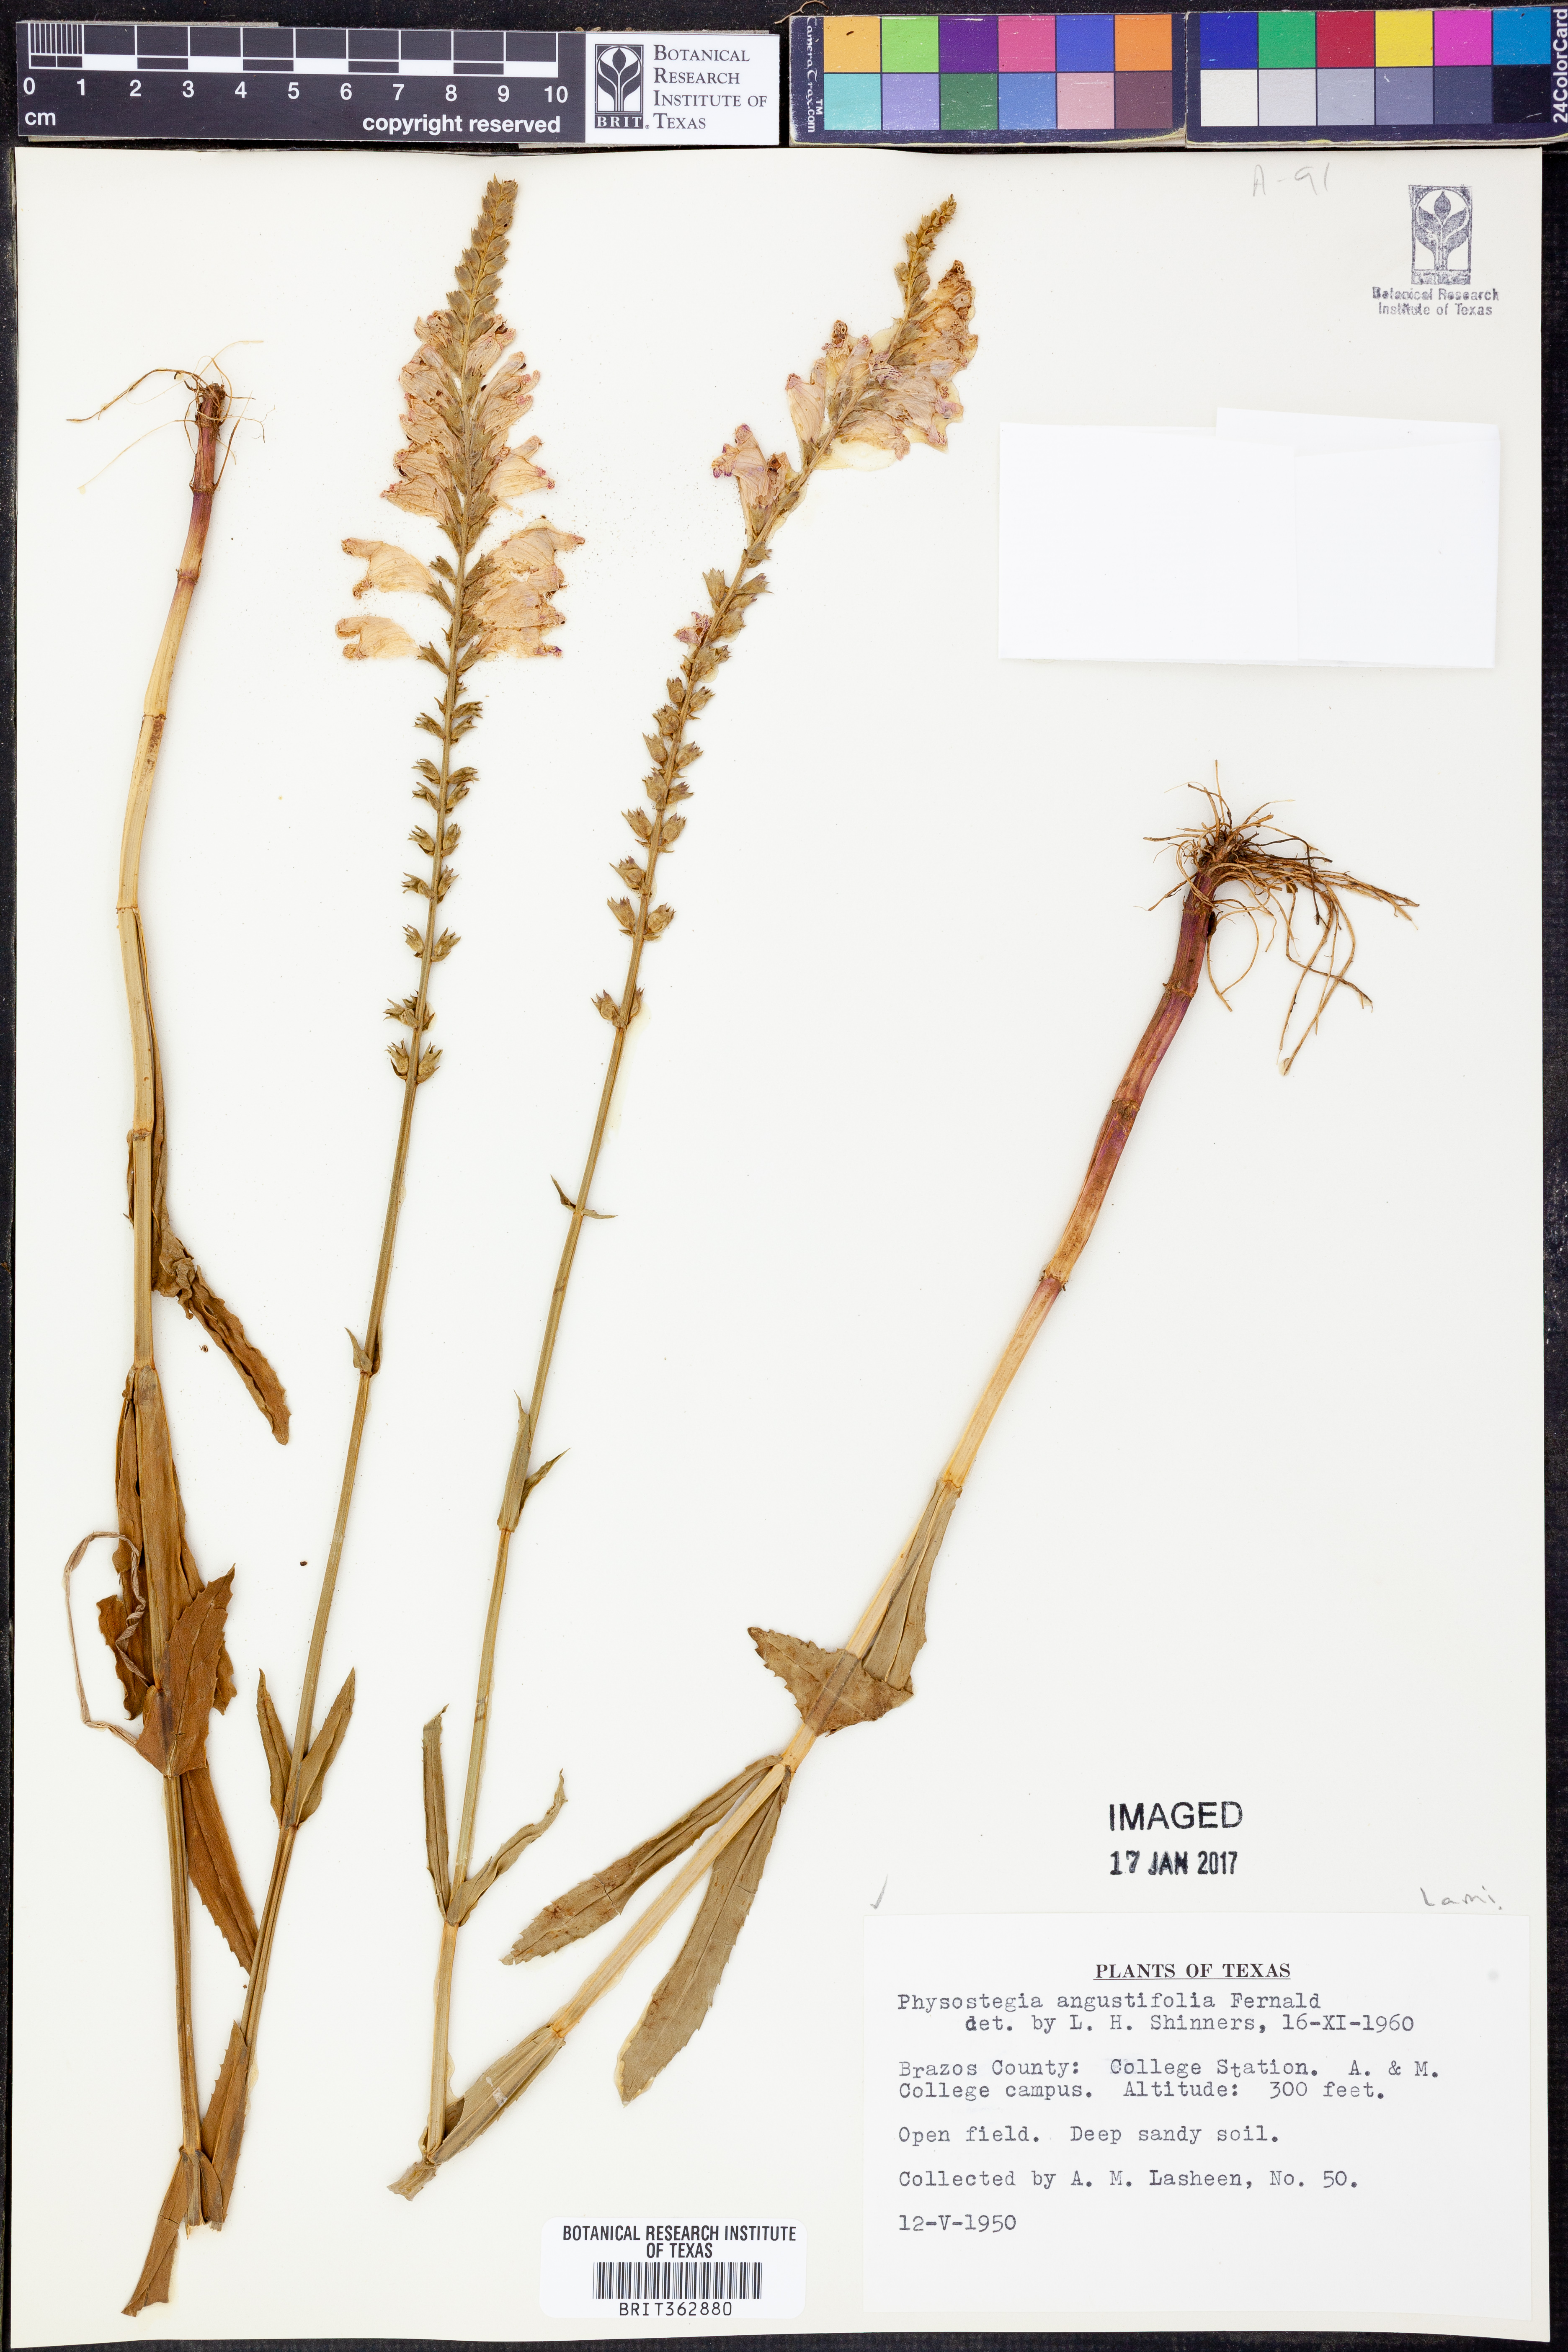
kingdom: Plantae
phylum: Tracheophyta
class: Magnoliopsida
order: Lamiales
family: Lamiaceae
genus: Physostegia
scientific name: Physostegia angustifolia
